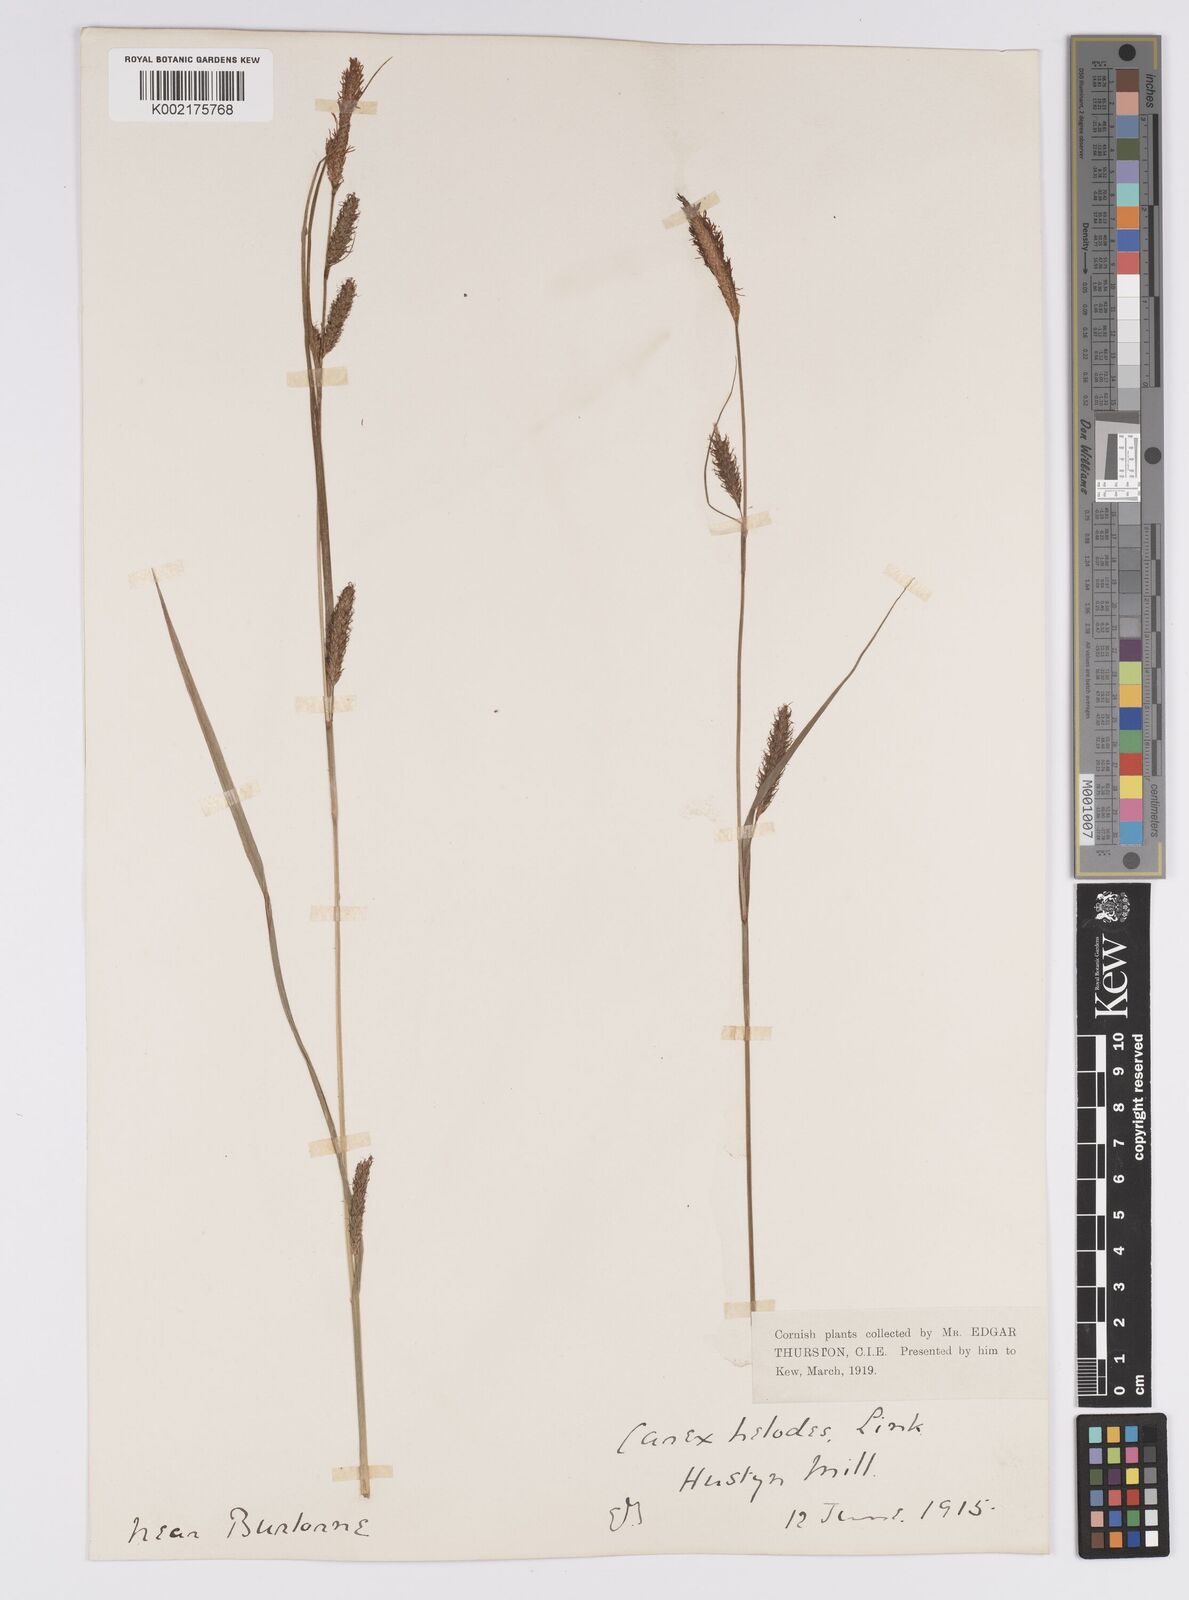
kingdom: Plantae
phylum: Tracheophyta
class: Liliopsida
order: Poales
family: Cyperaceae
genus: Carex
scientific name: Carex laevigata
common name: Smooth-stalked sedge
